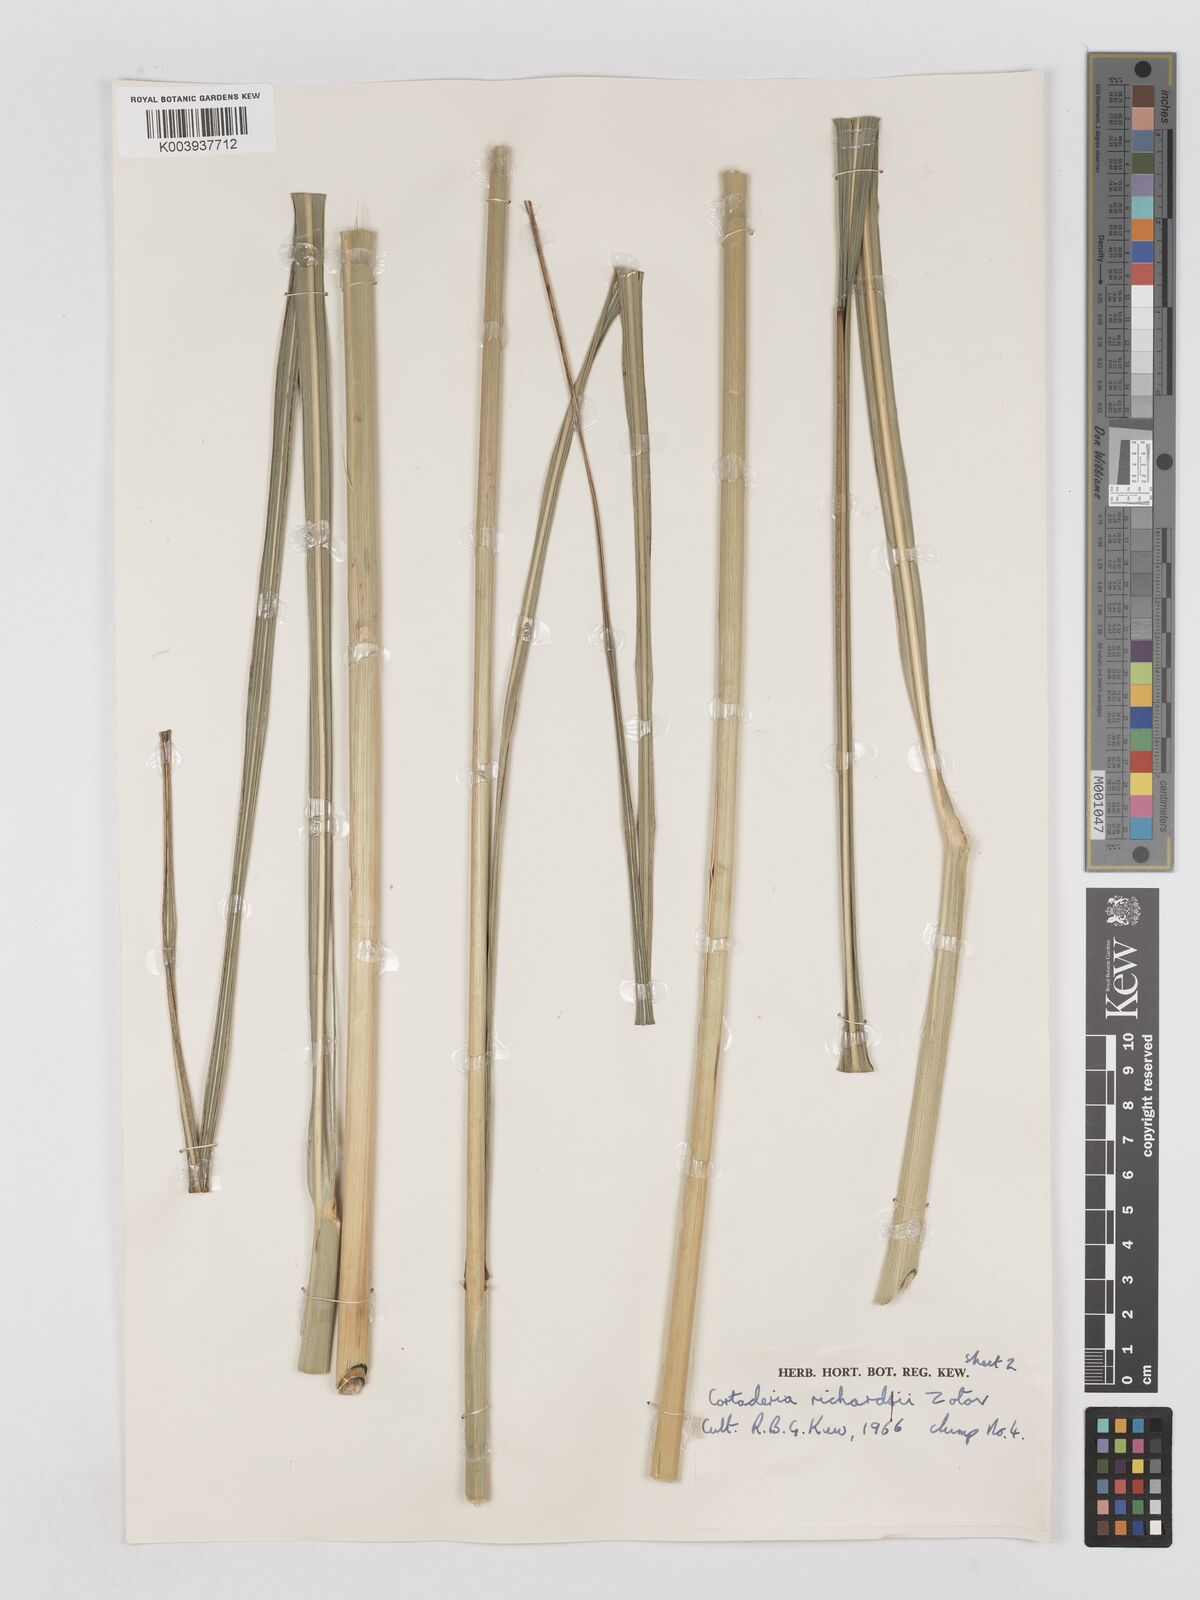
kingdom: Plantae
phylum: Tracheophyta
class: Liliopsida
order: Poales
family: Poaceae
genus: Austroderia
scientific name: Austroderia richardii
